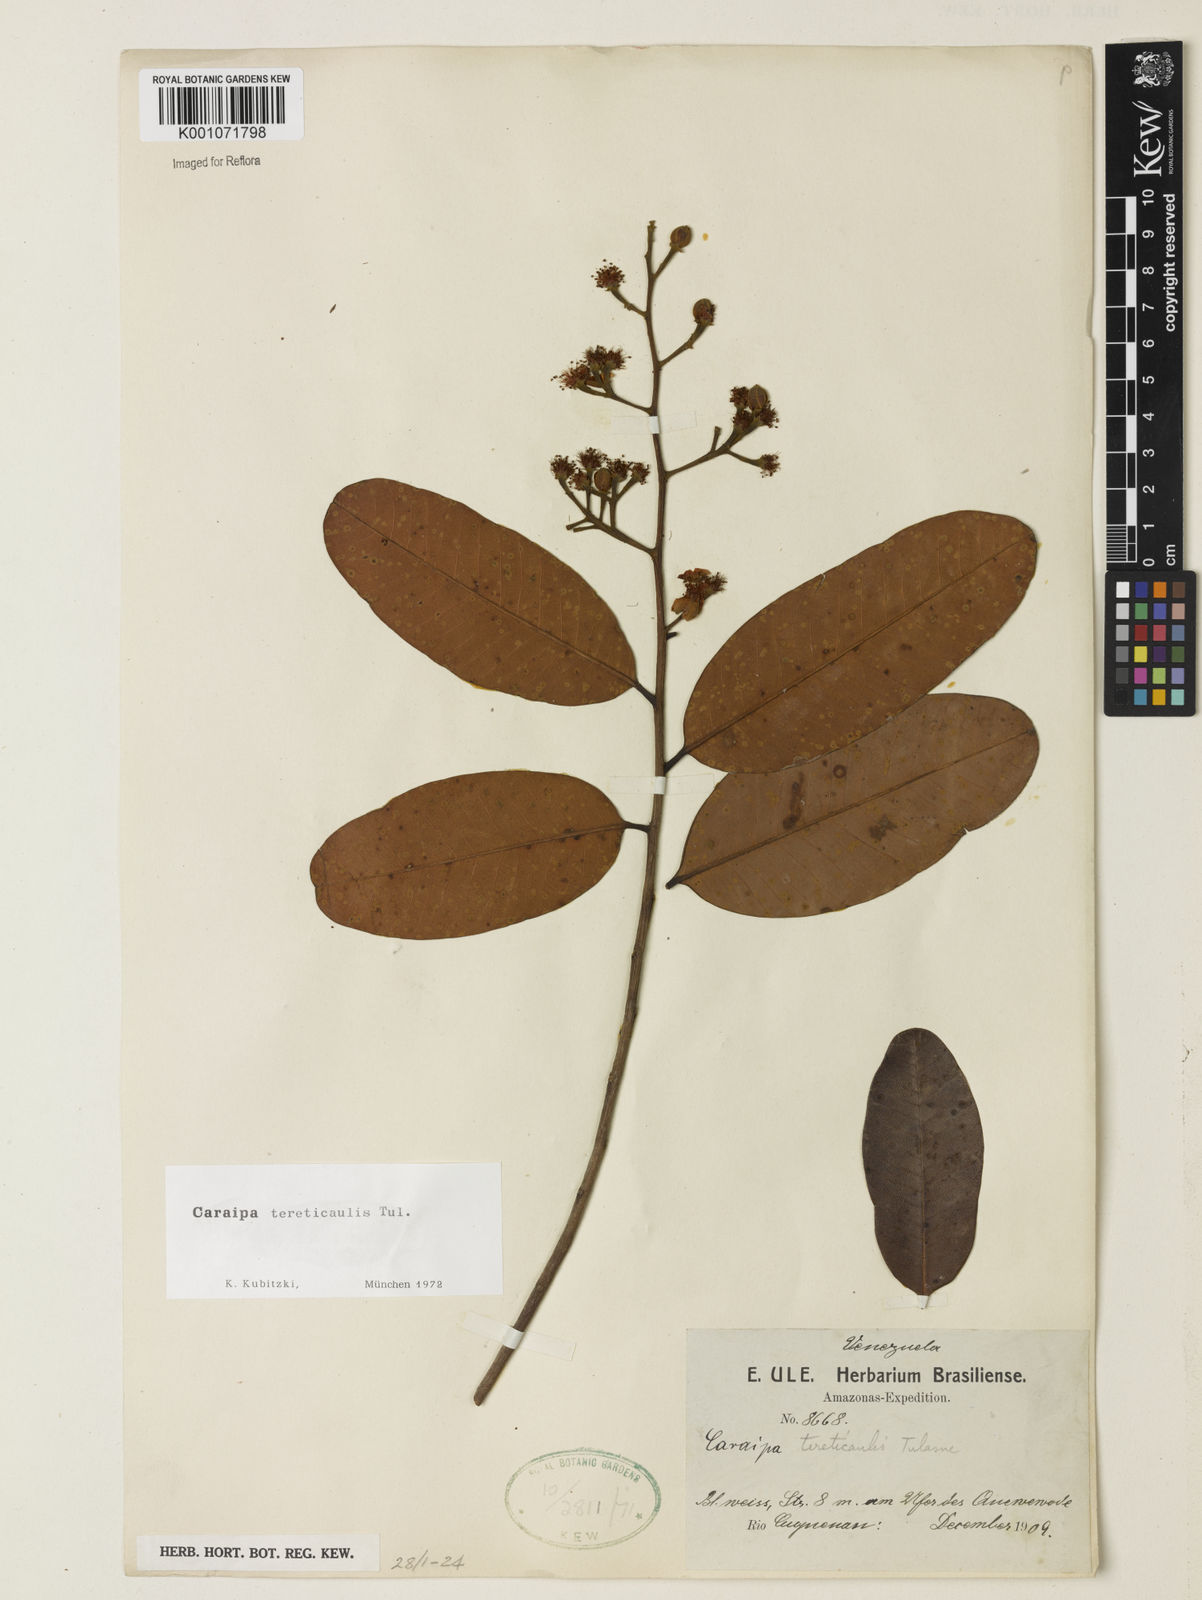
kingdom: Plantae
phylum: Tracheophyta
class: Magnoliopsida
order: Malpighiales
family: Calophyllaceae
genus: Caraipa
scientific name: Caraipa
